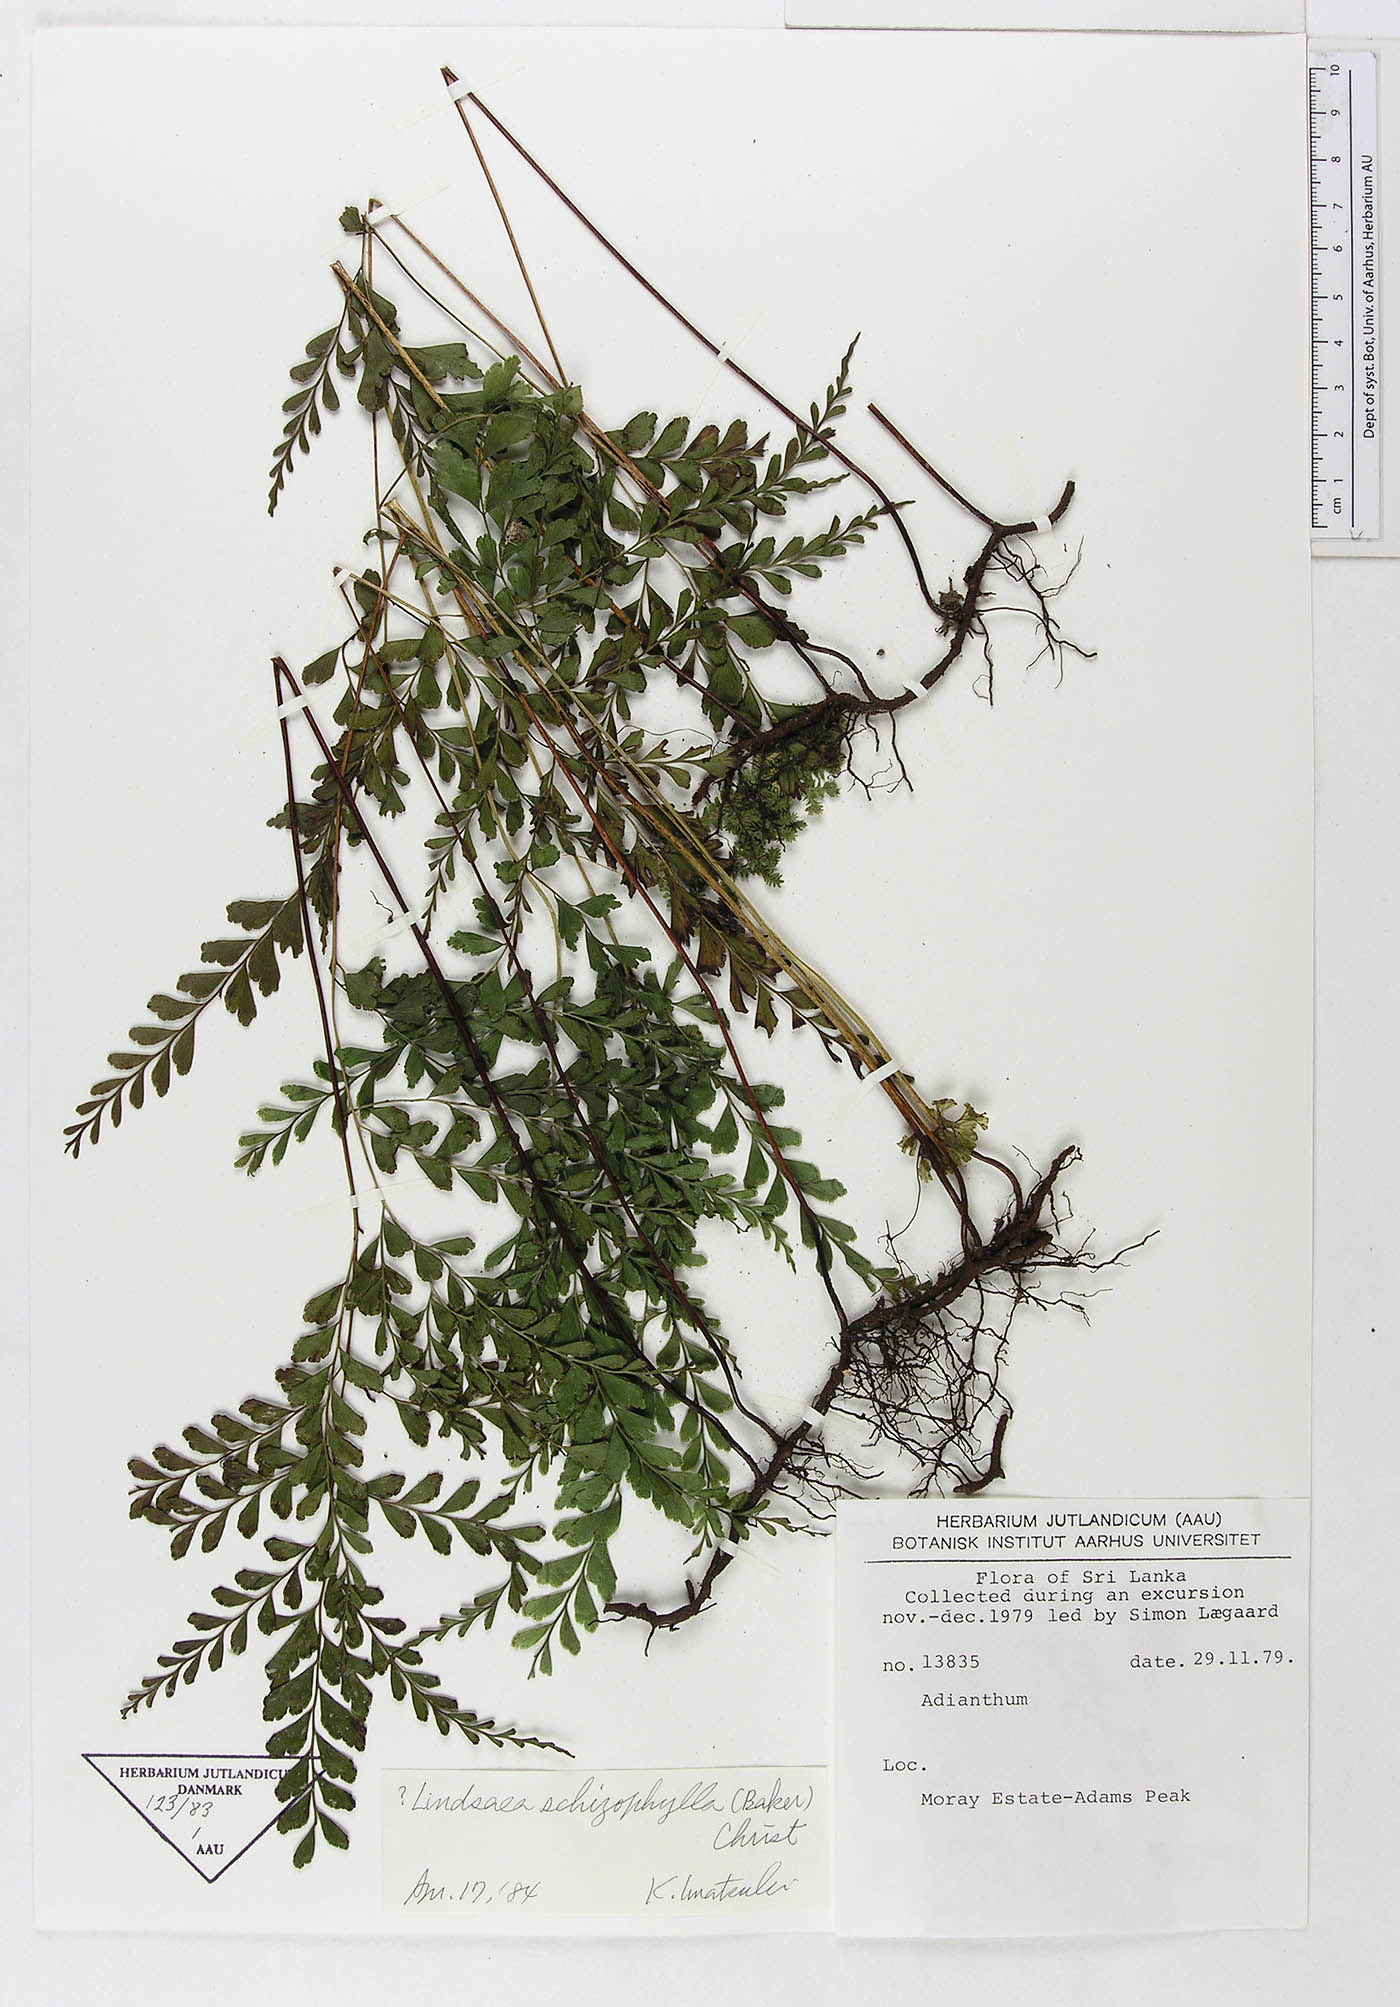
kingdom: Plantae
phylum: Tracheophyta
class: Polypodiopsida
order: Polypodiales
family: Dennstaedtiaceae
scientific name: Dennstaedtiaceae
